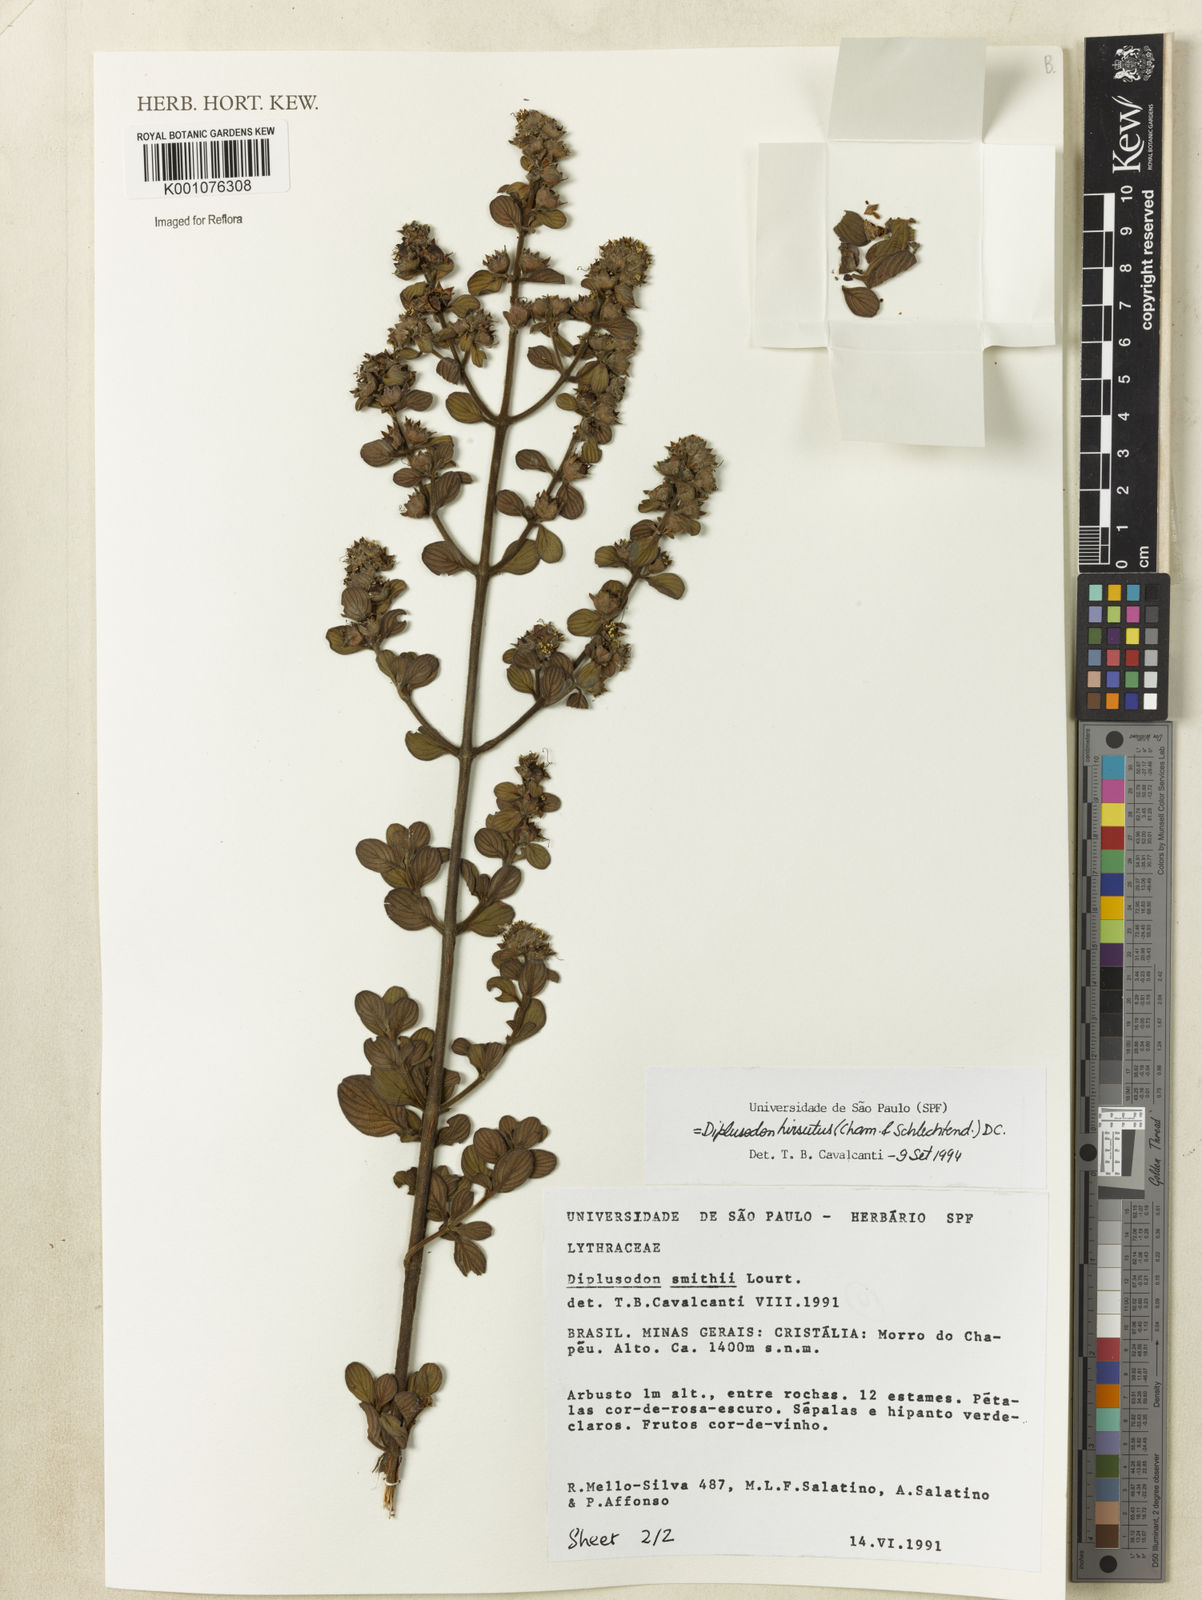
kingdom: Plantae
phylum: Tracheophyta
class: Magnoliopsida
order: Myrtales
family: Lythraceae
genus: Diplusodon
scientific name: Diplusodon hirsutus
